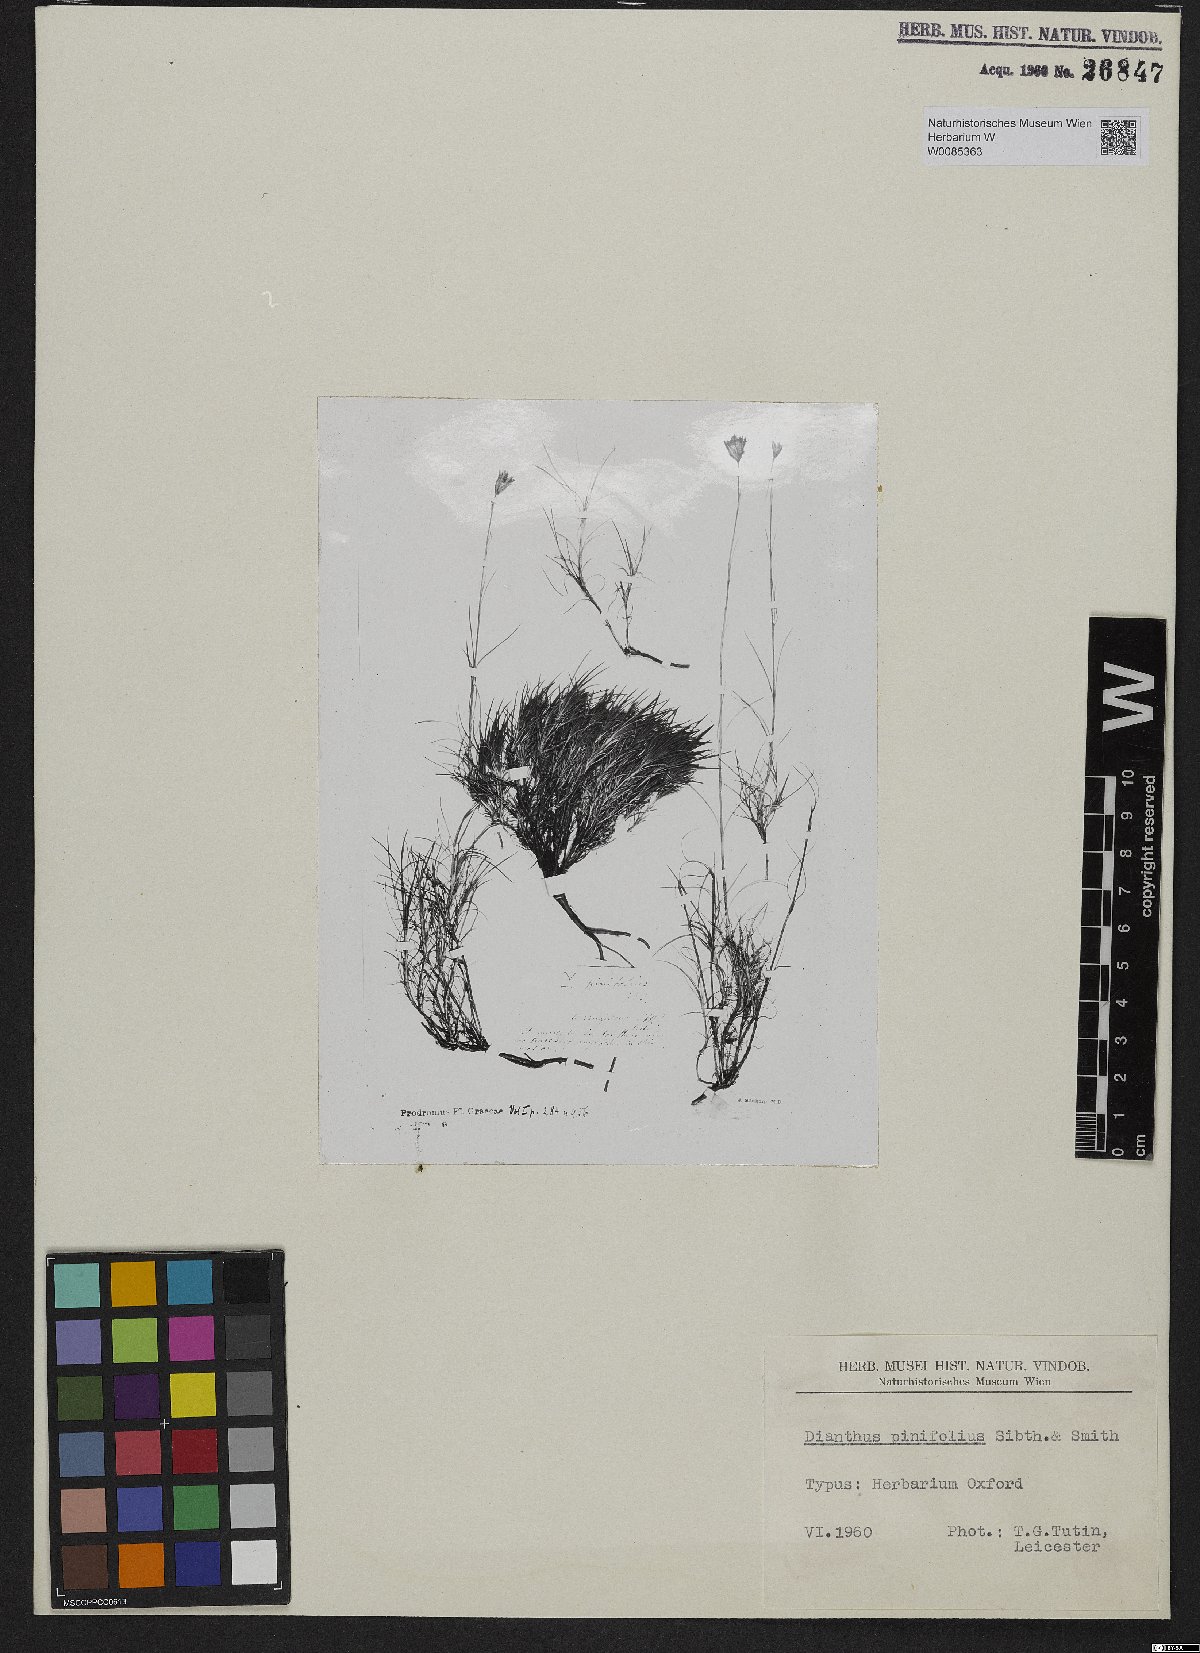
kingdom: Plantae
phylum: Tracheophyta
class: Magnoliopsida
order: Caryophyllales
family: Caryophyllaceae
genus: Dianthus
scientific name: Dianthus pinifolius
